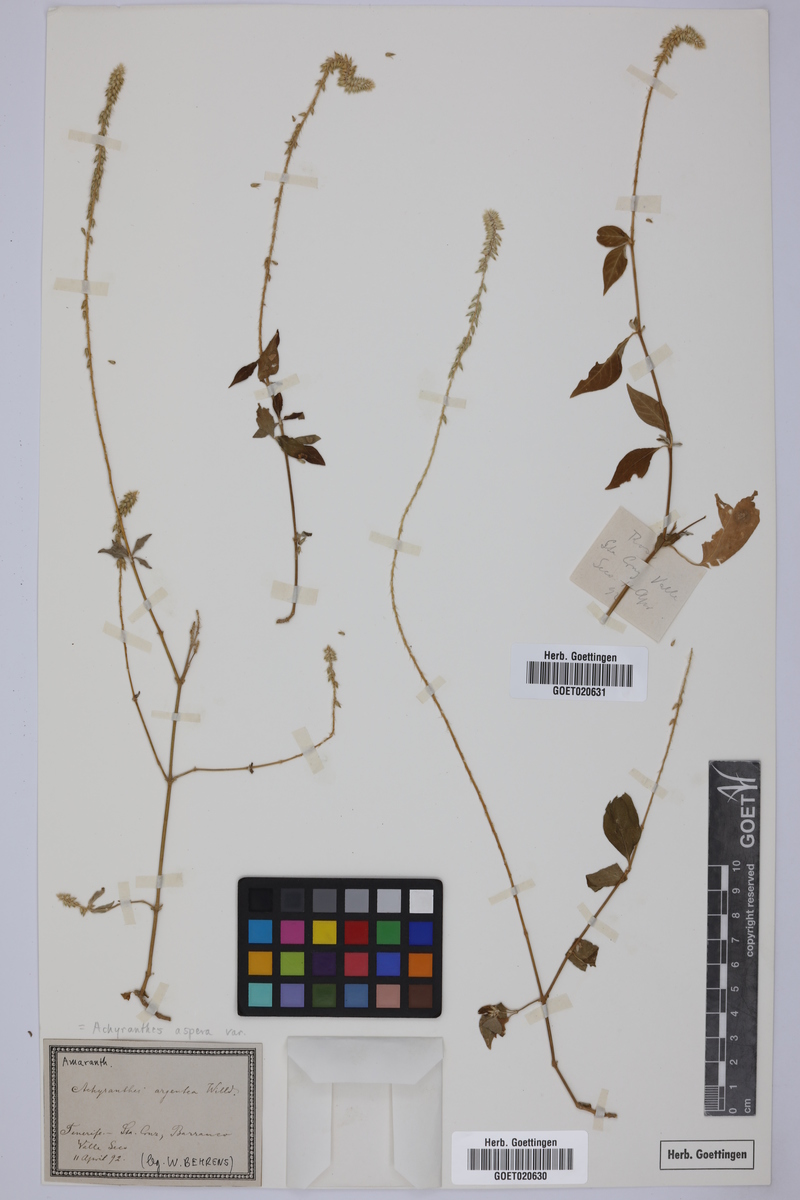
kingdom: Plantae
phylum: Tracheophyta
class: Magnoliopsida
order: Caryophyllales
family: Amaranthaceae
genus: Achyranthes
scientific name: Achyranthes aspera
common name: Devil's horsewhip
